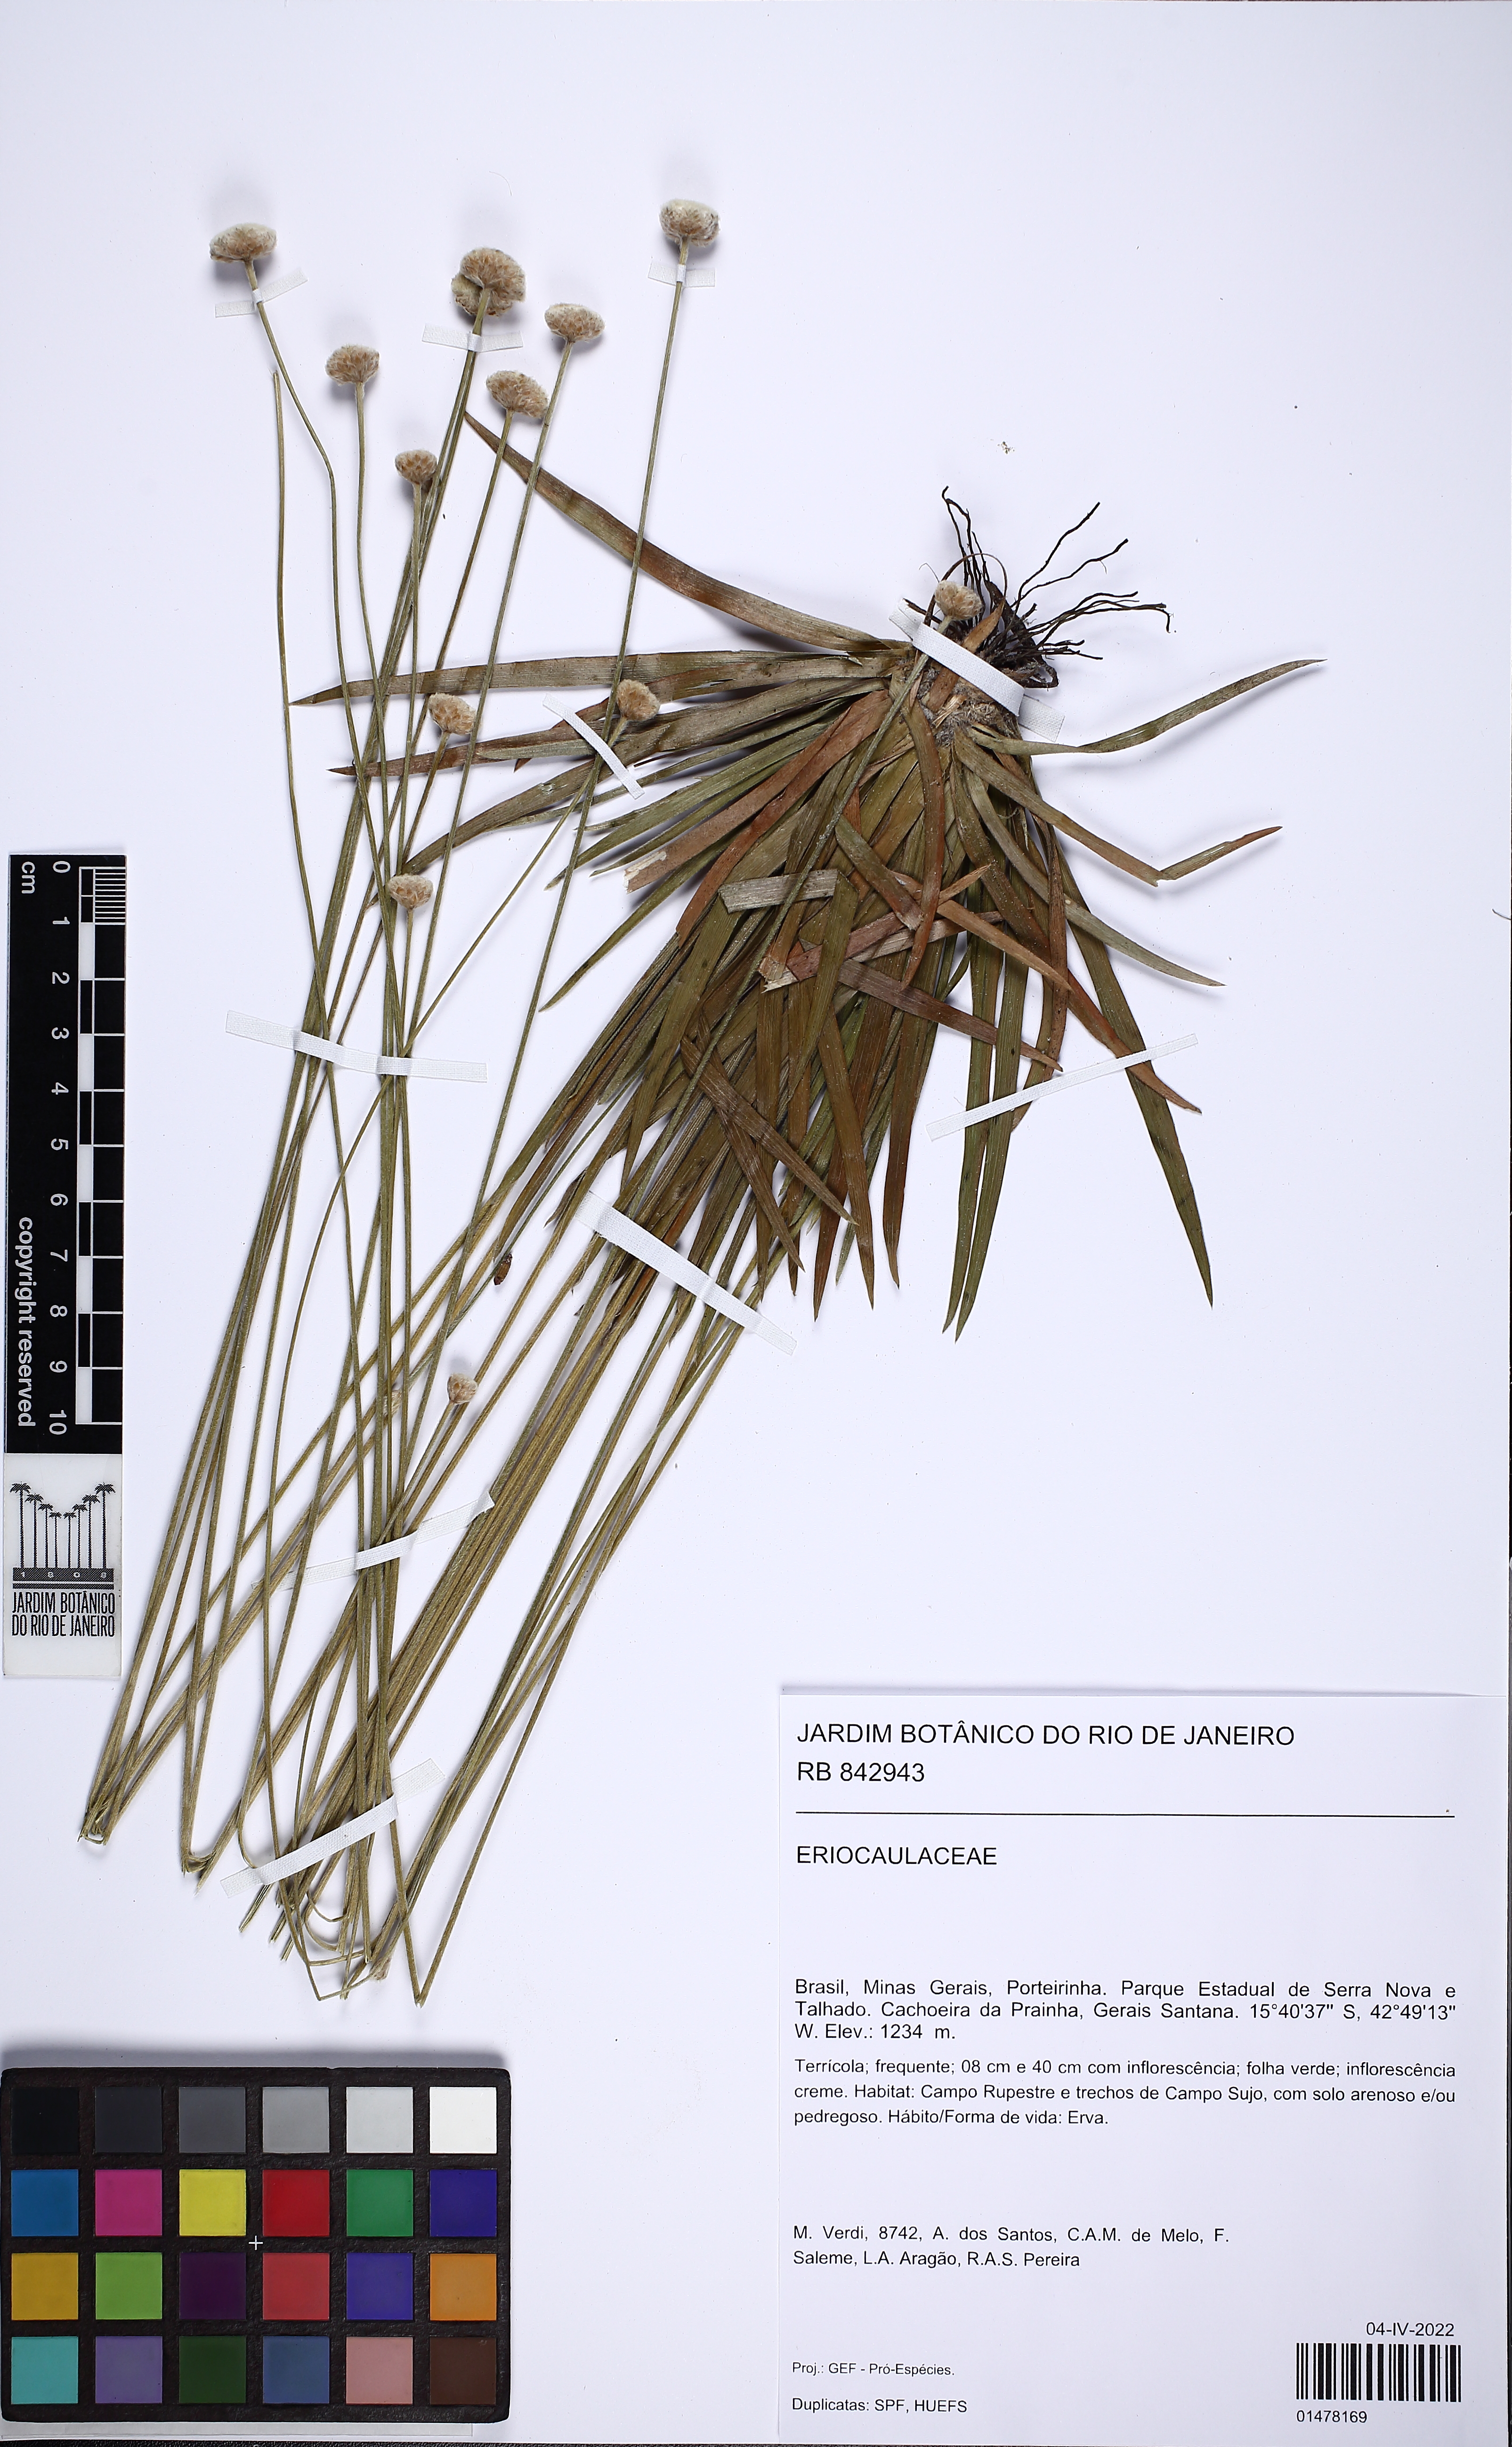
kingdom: Plantae
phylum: Tracheophyta
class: Liliopsida
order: Poales
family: Eriocaulaceae
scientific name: Eriocaulaceae
